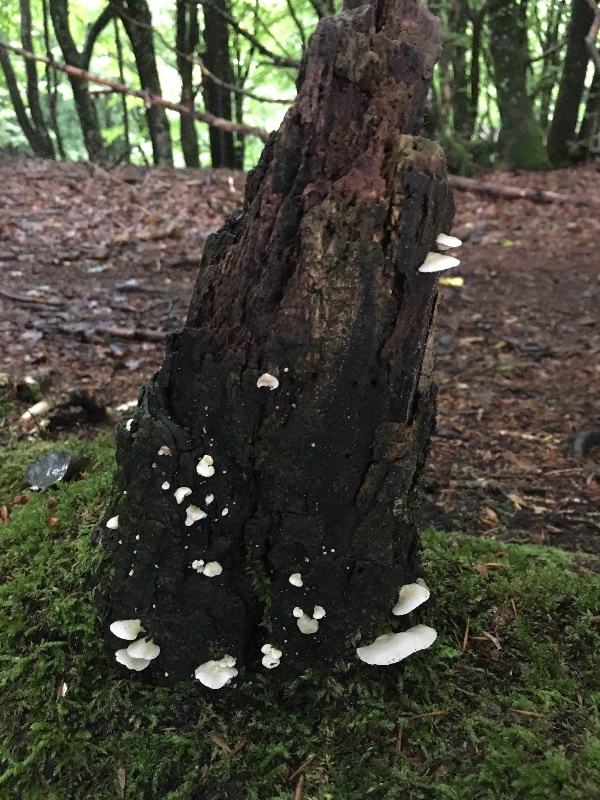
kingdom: Fungi
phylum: Basidiomycota
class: Agaricomycetes
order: Agaricales
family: Crepidotaceae
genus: Crepidotus
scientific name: Crepidotus
